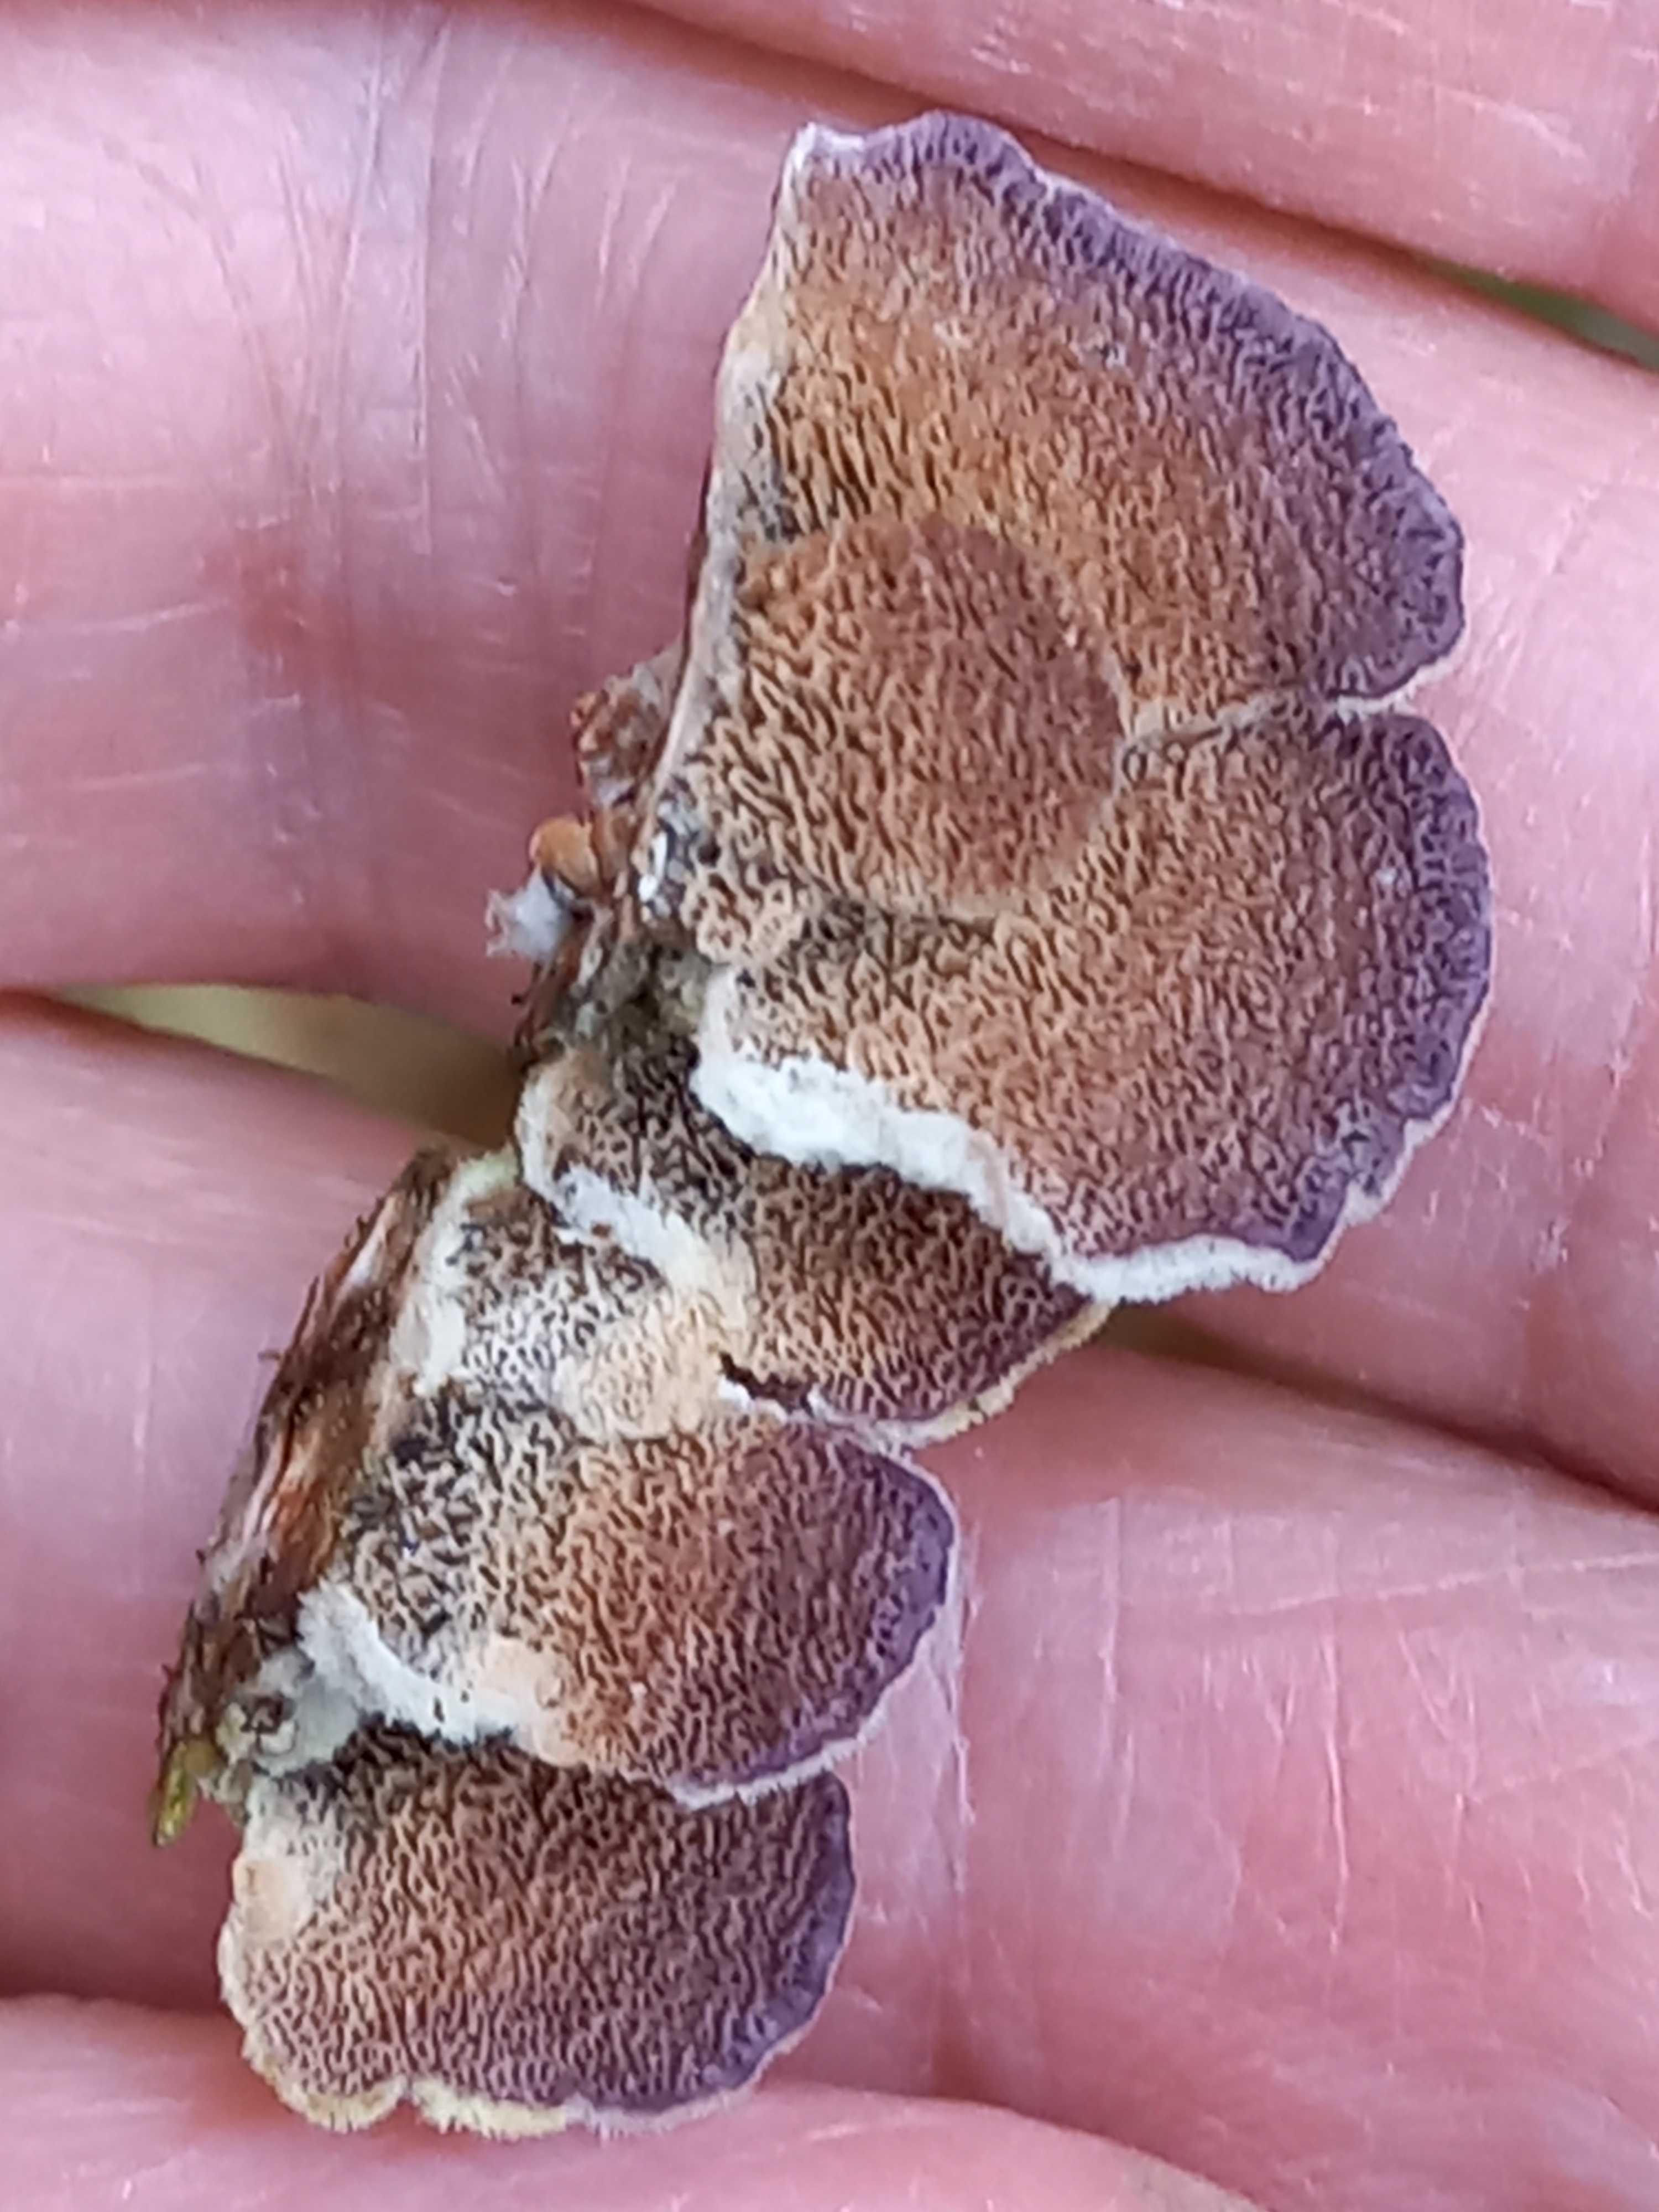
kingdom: Fungi
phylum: Basidiomycota
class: Agaricomycetes
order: Hymenochaetales
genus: Trichaptum
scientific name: Trichaptum abietinum
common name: almindelig violporesvamp
